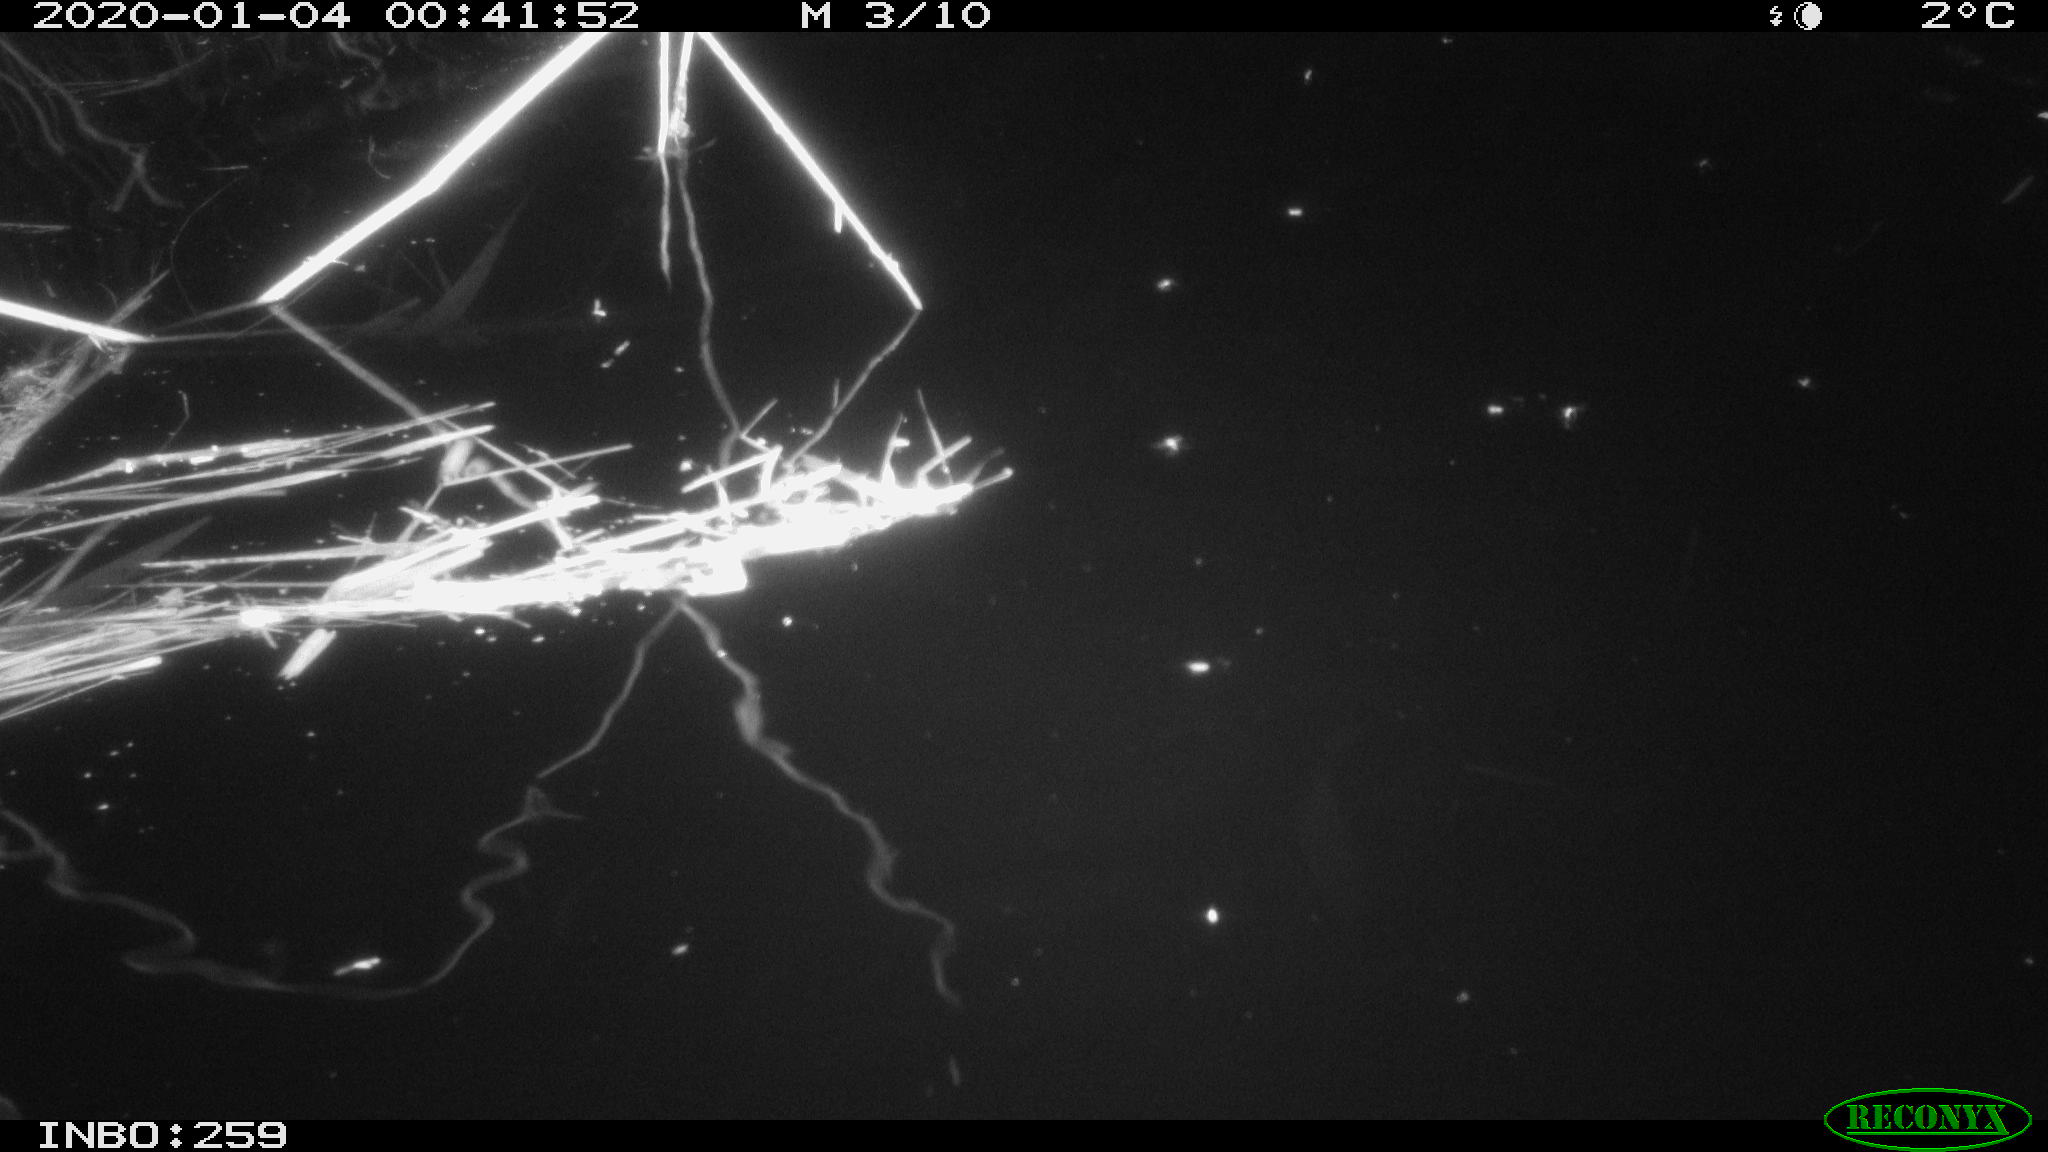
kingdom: Animalia
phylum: Chordata
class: Mammalia
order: Rodentia
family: Cricetidae
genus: Ondatra
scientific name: Ondatra zibethicus
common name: Muskrat
